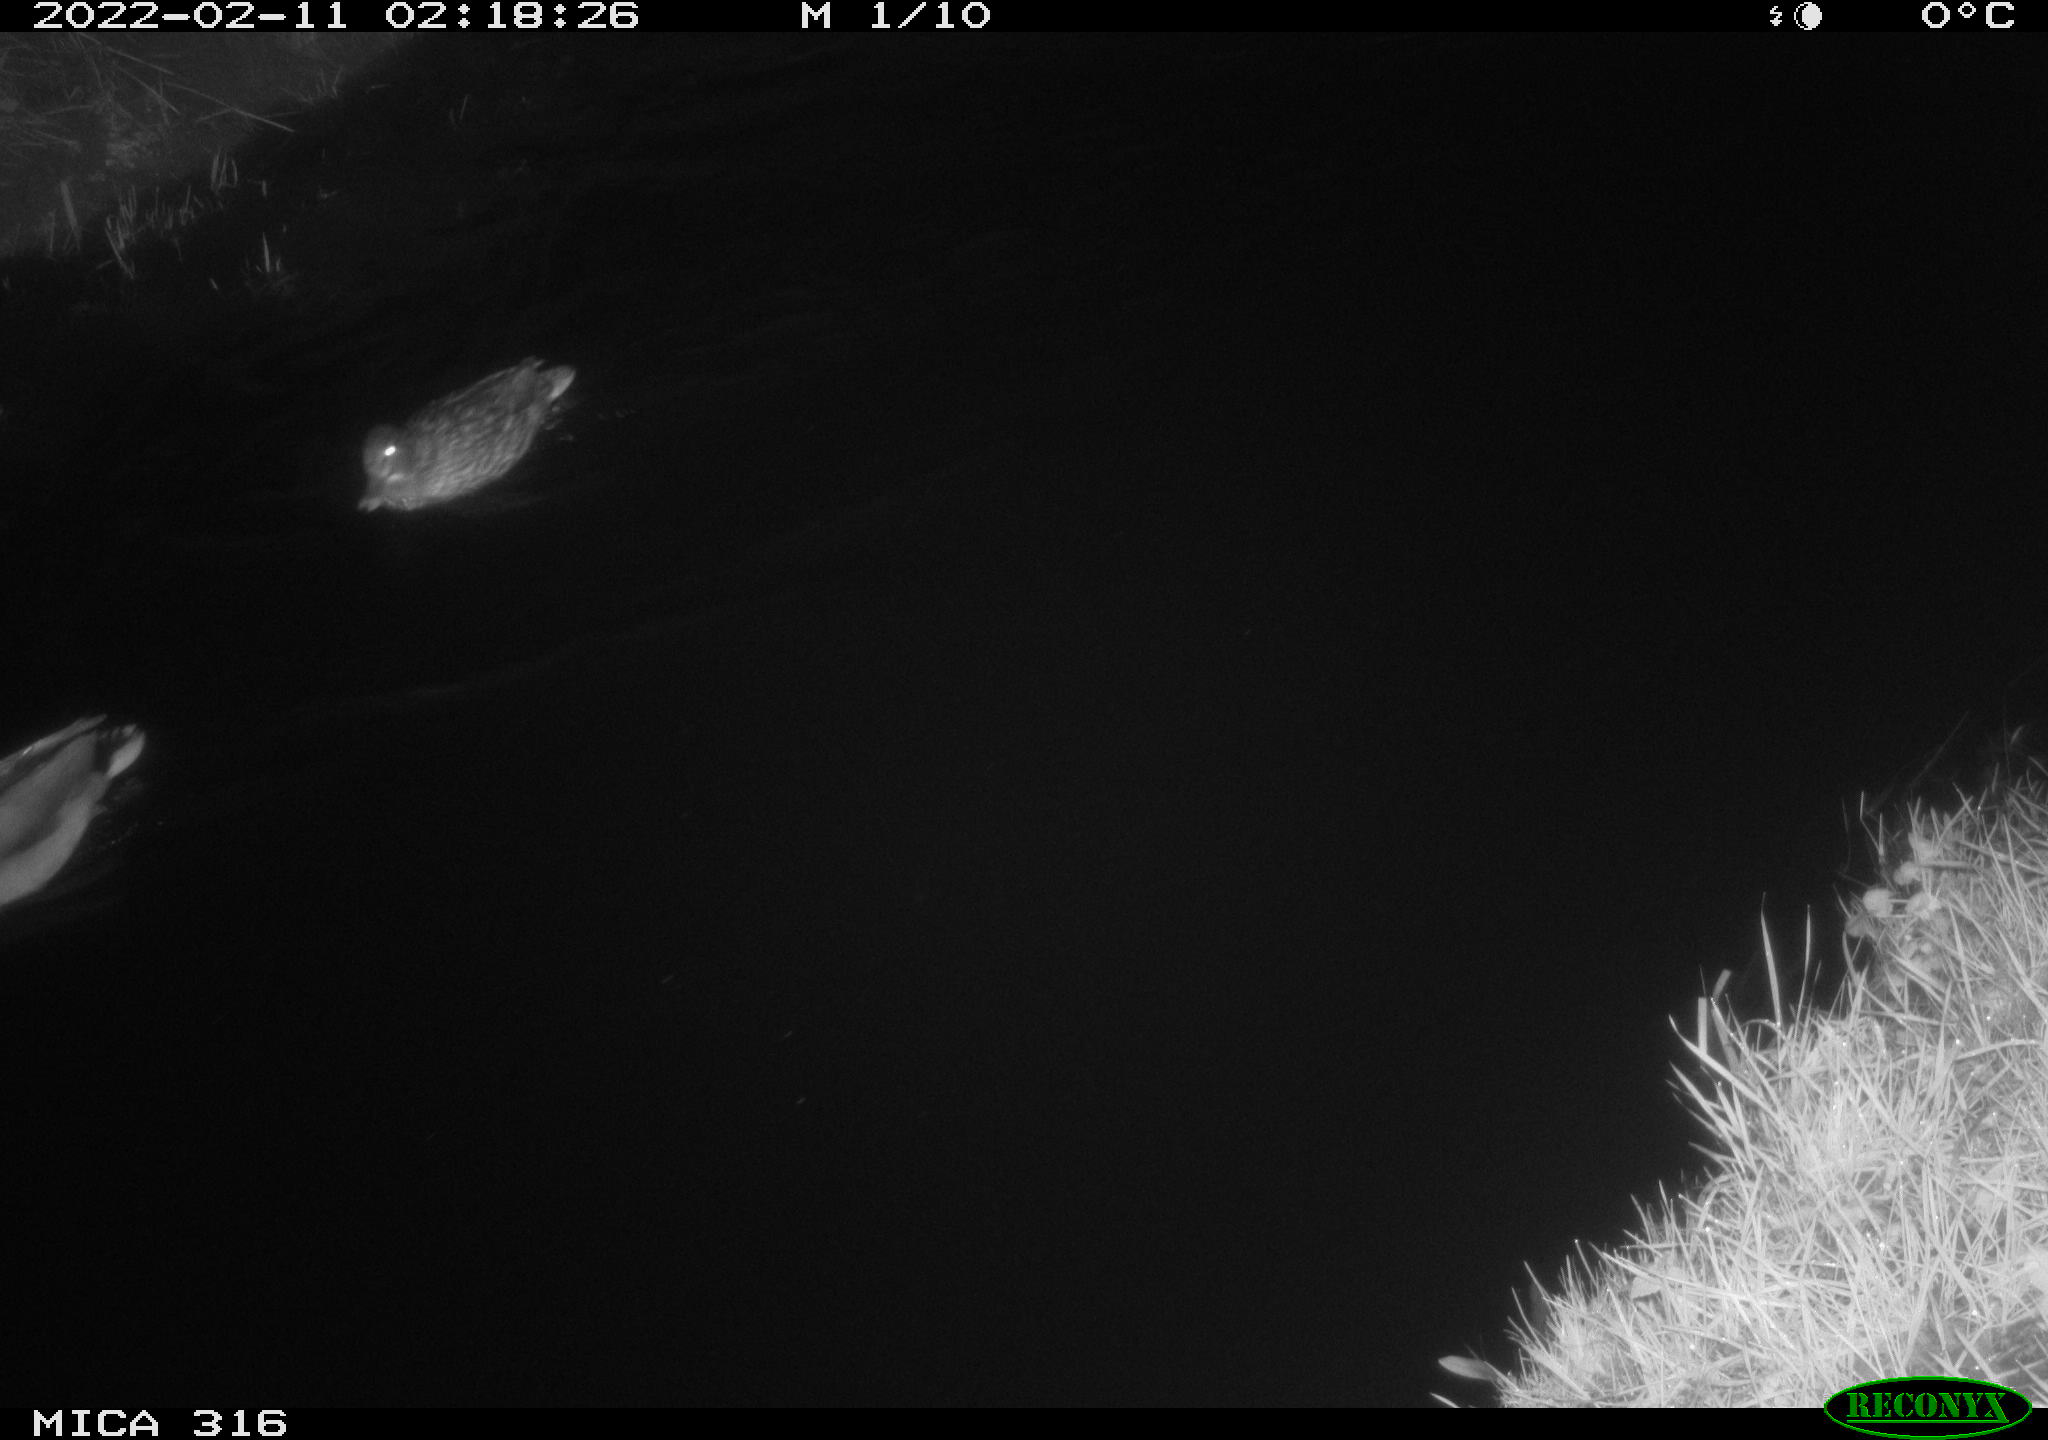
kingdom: Animalia
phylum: Chordata
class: Aves
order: Anseriformes
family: Anatidae
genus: Anas
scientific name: Anas platyrhynchos
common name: Mallard
